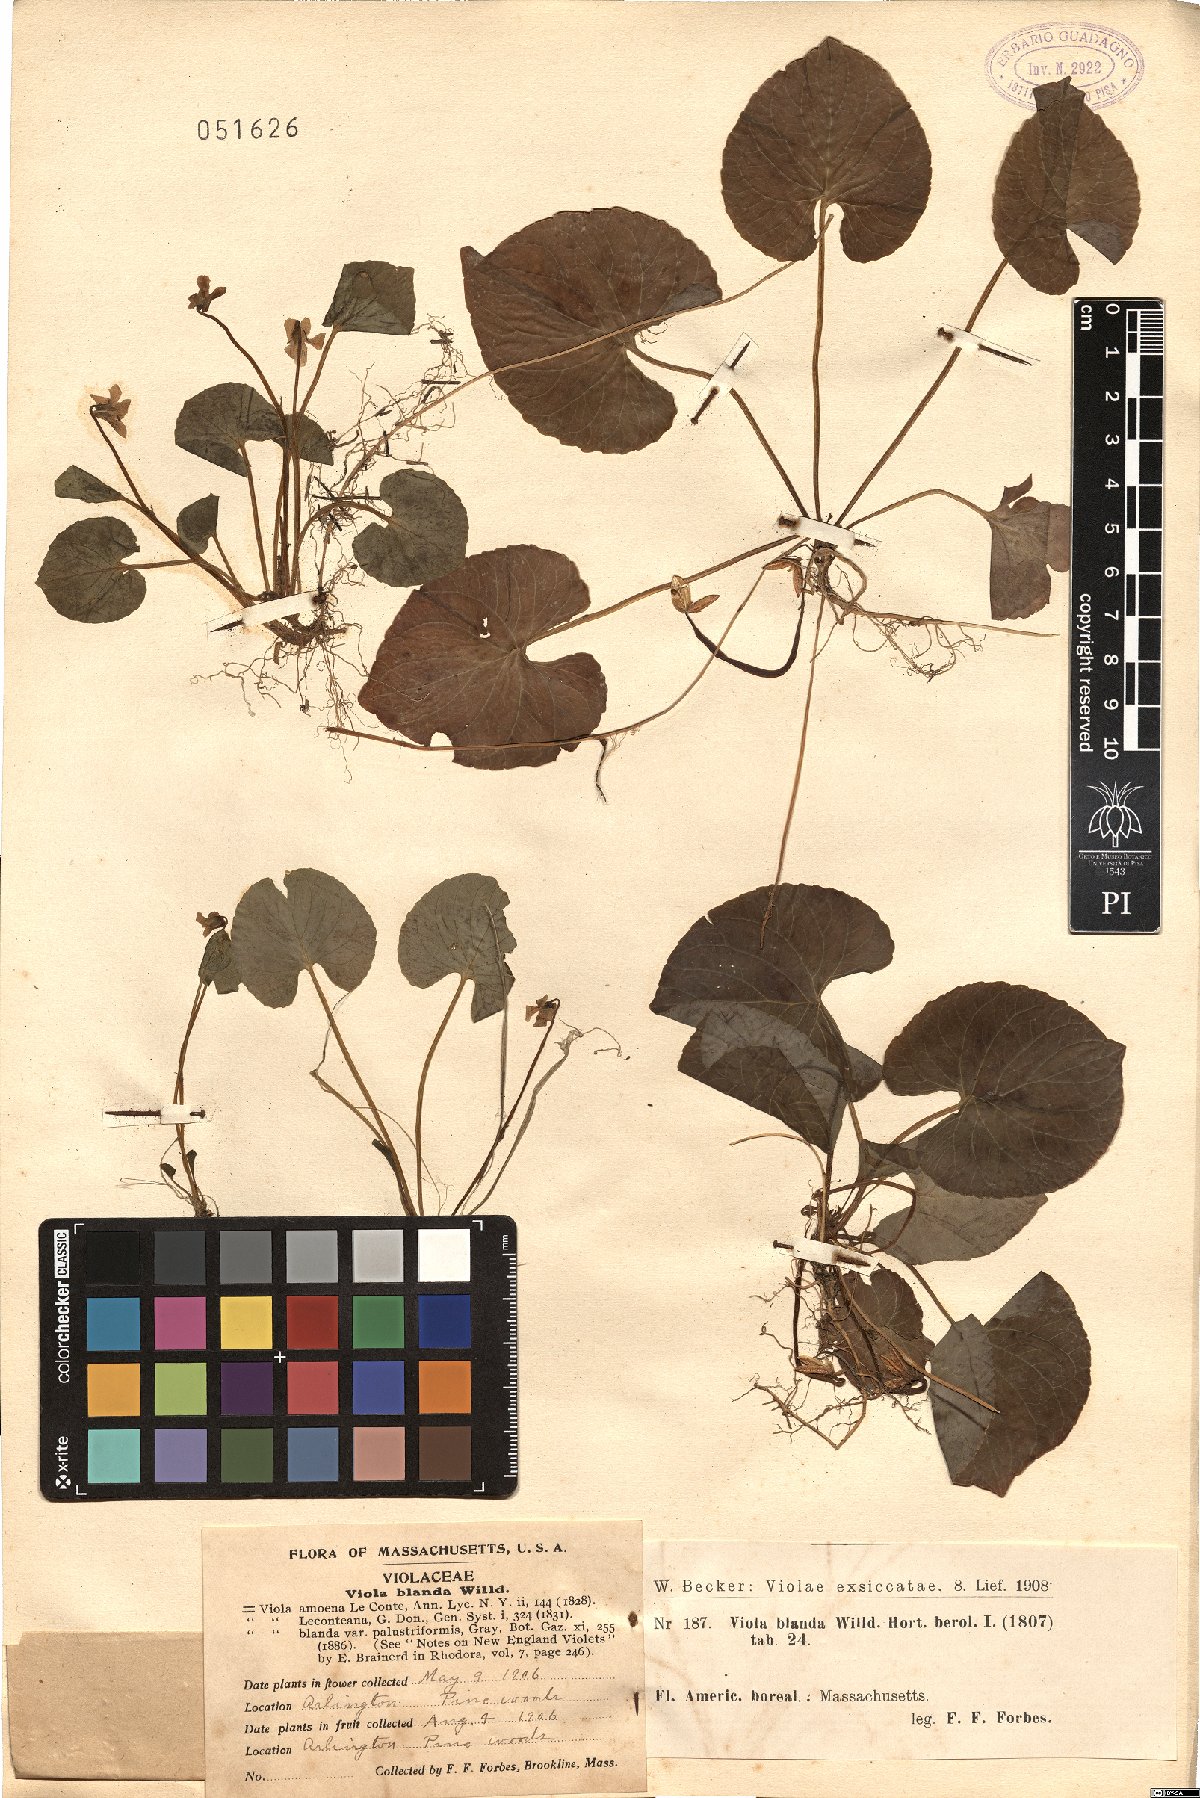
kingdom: Plantae
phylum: Tracheophyta
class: Magnoliopsida
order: Malpighiales
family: Violaceae
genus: Viola
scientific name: Viola blanda
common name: Sweet white violet
